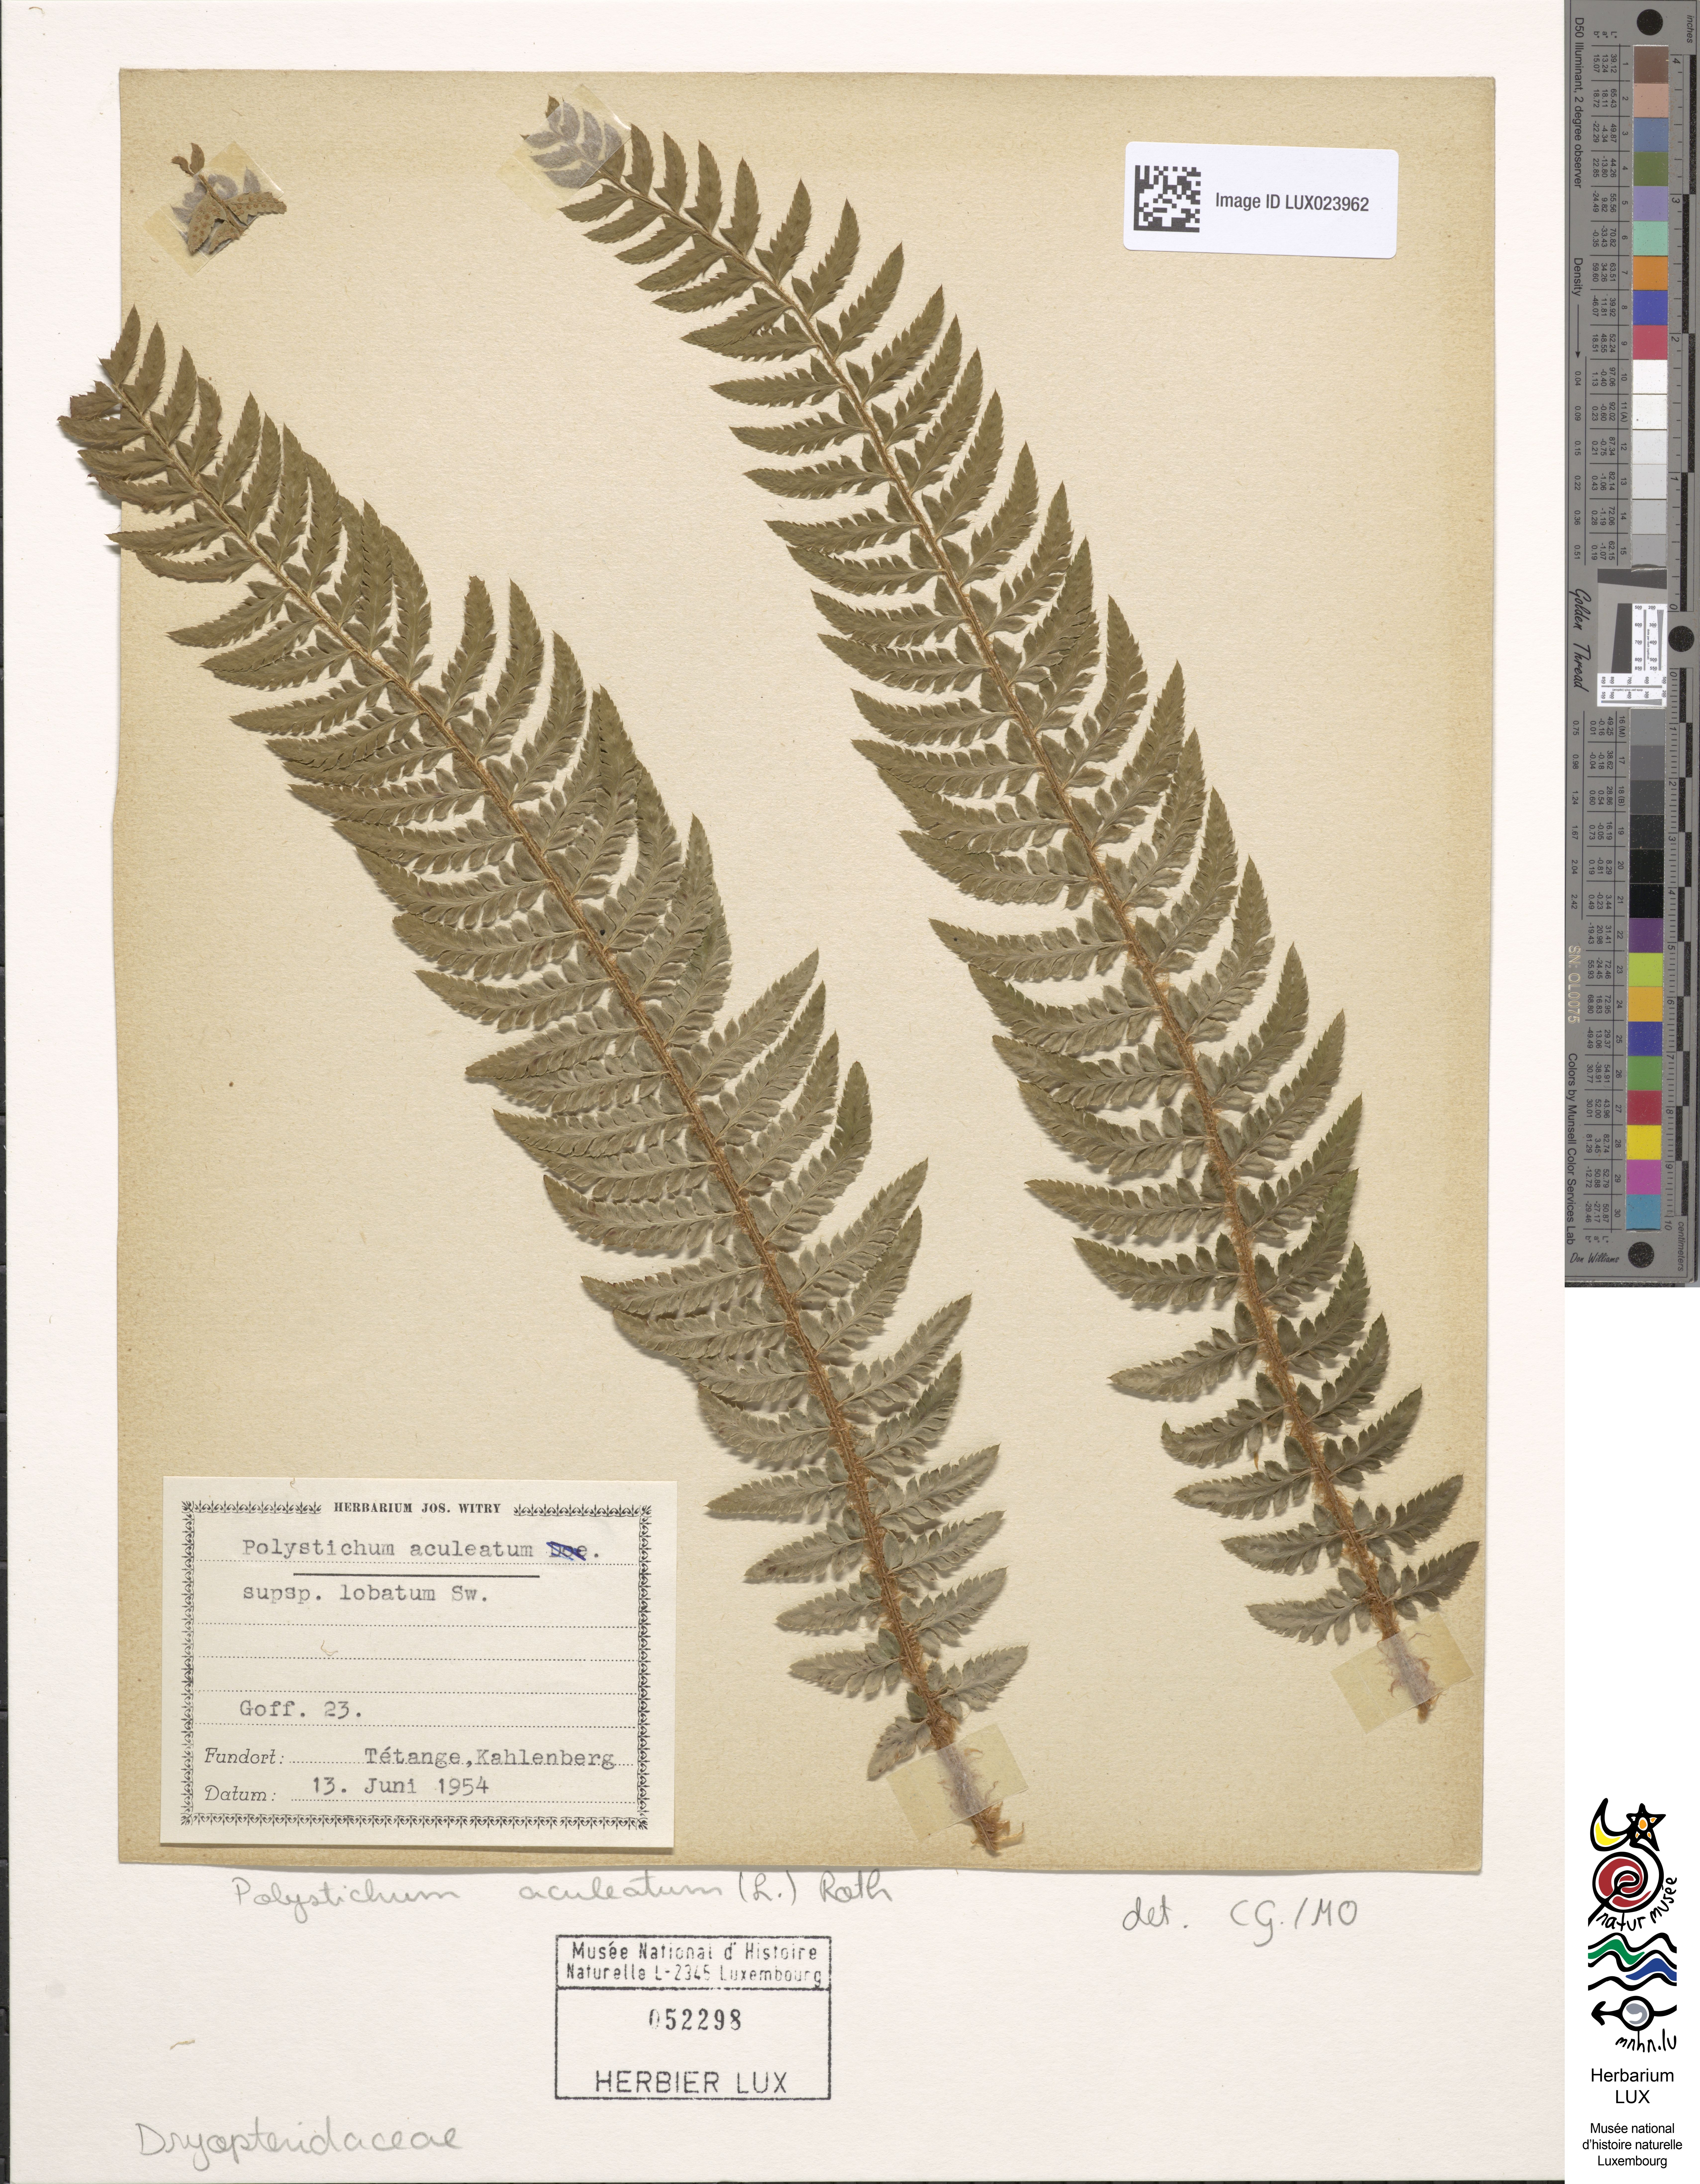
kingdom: Plantae
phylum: Tracheophyta
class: Polypodiopsida
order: Polypodiales
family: Dryopteridaceae
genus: Polystichum
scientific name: Polystichum aculeatum
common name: Hard shield-fern
